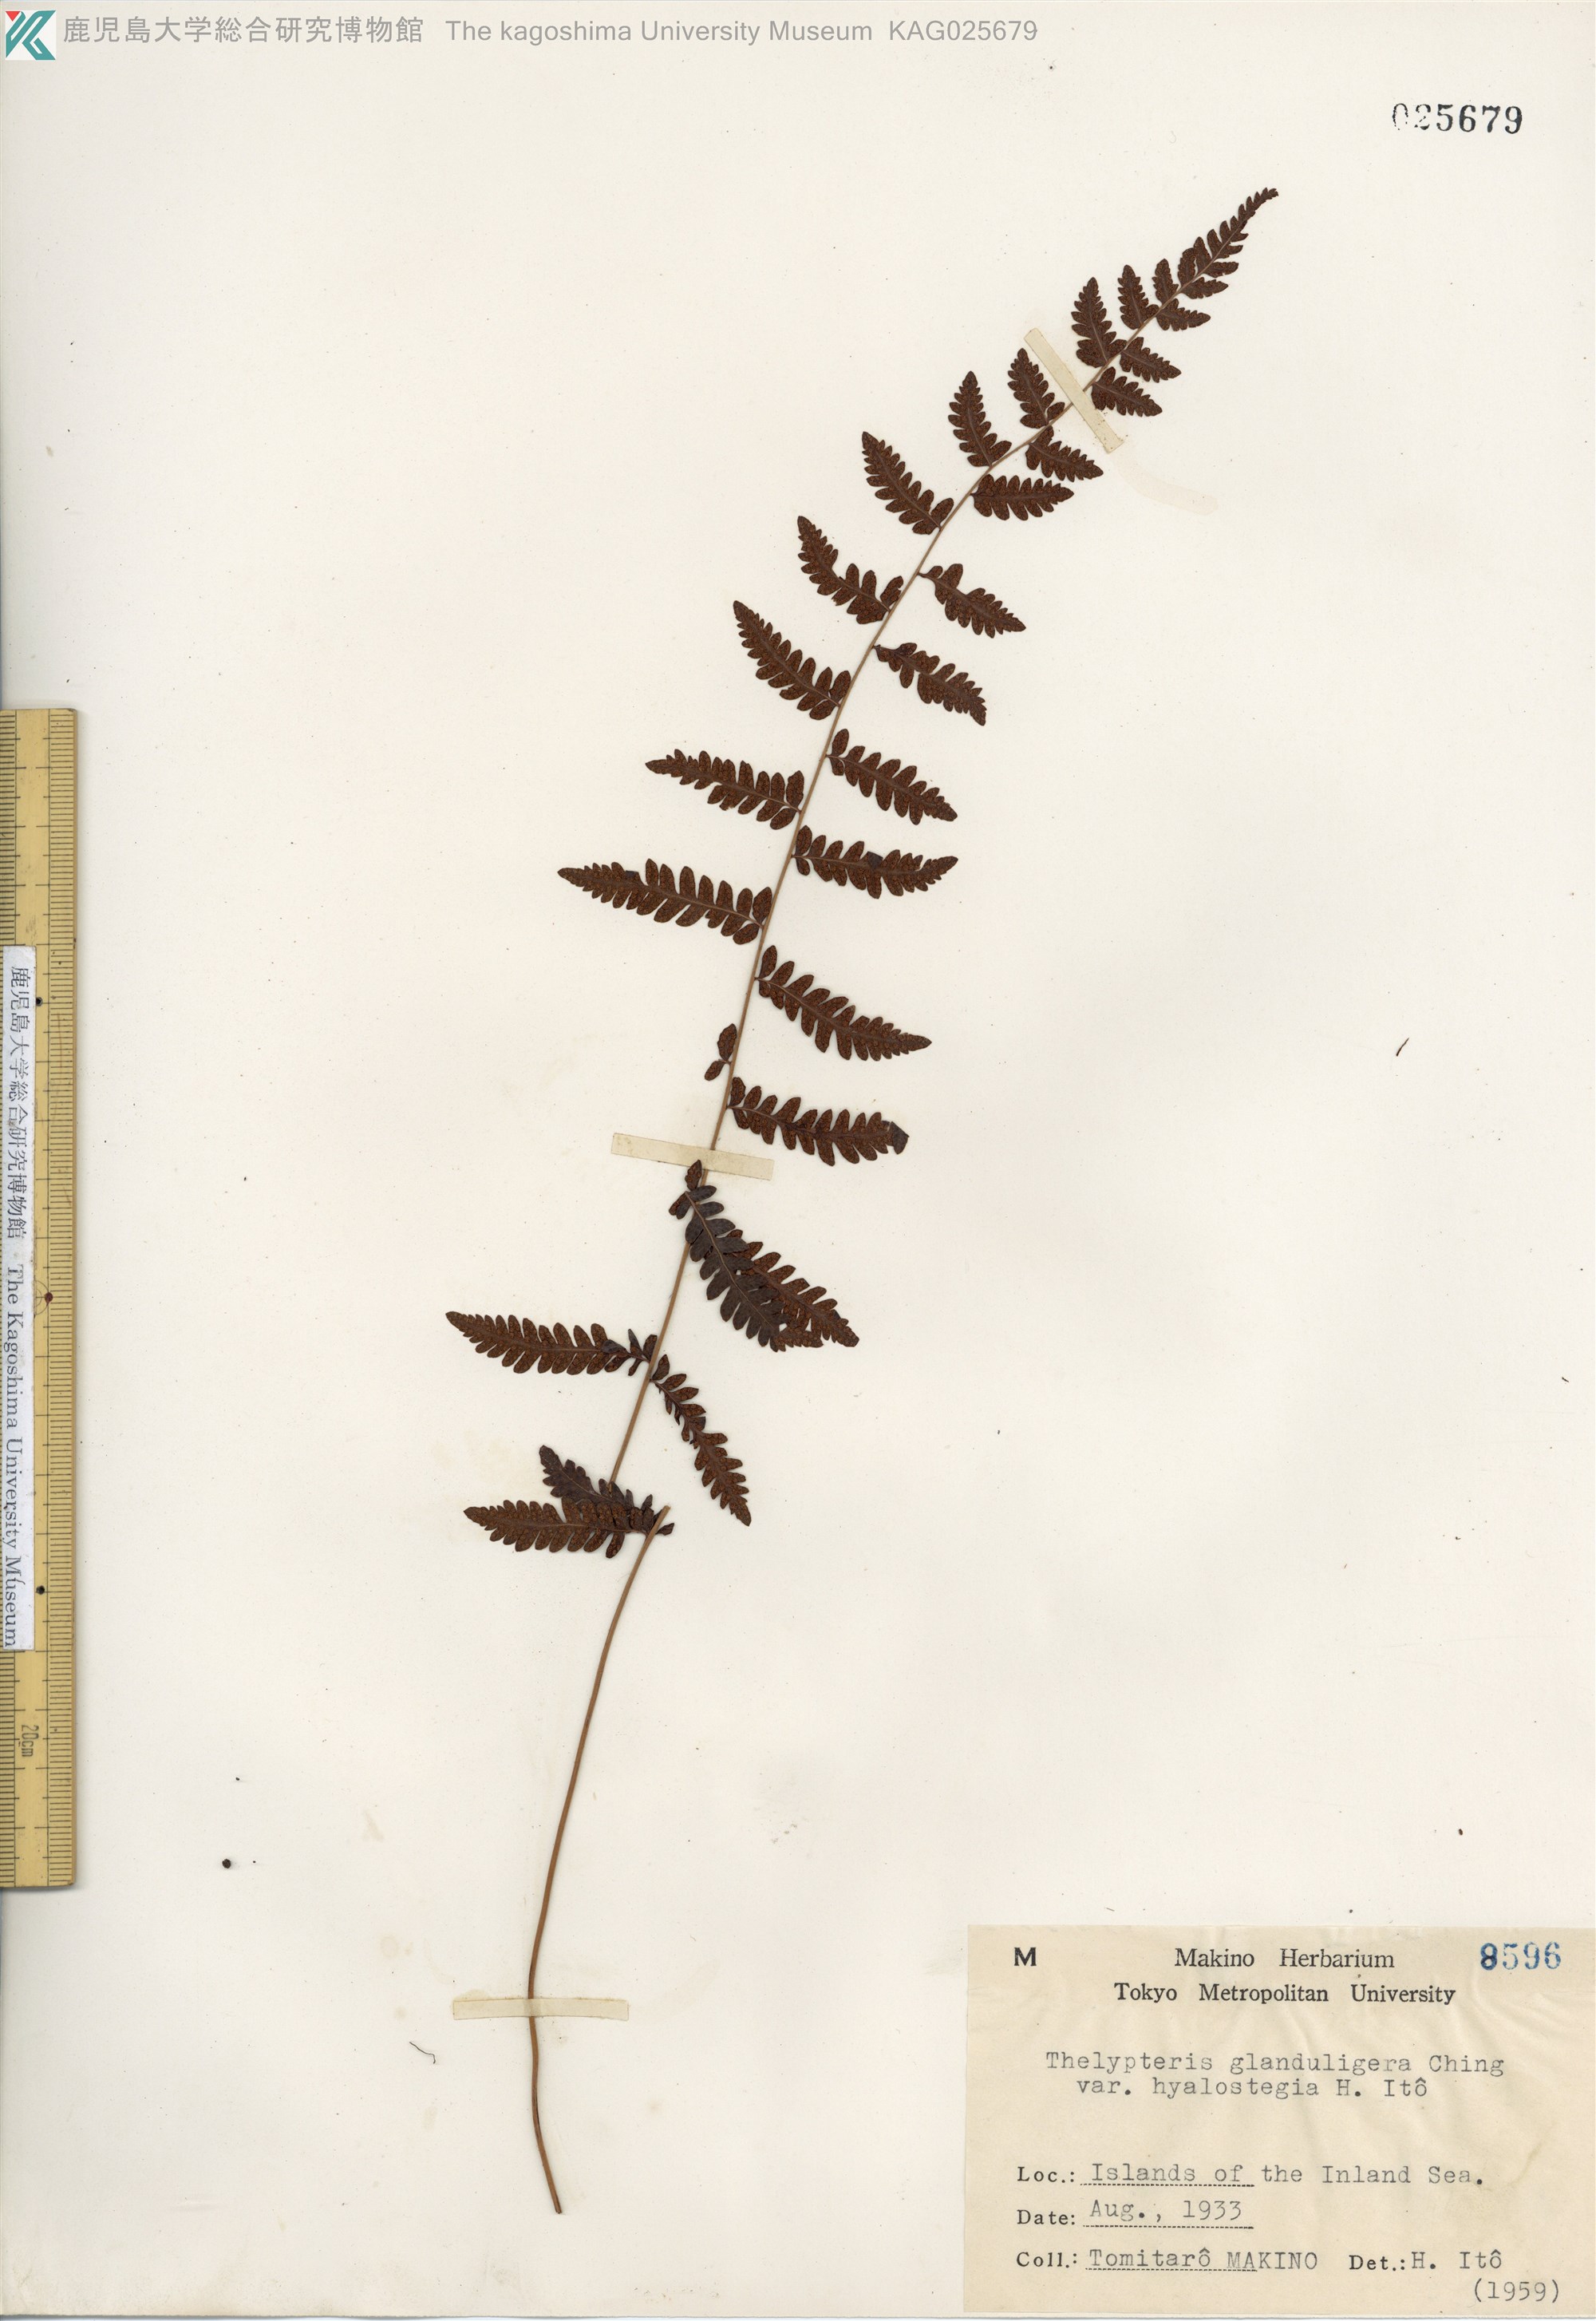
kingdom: Plantae
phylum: Tracheophyta
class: Polypodiopsida
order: Polypodiales
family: Thelypteridaceae
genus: Amauropelta
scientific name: Amauropelta angustifrons
